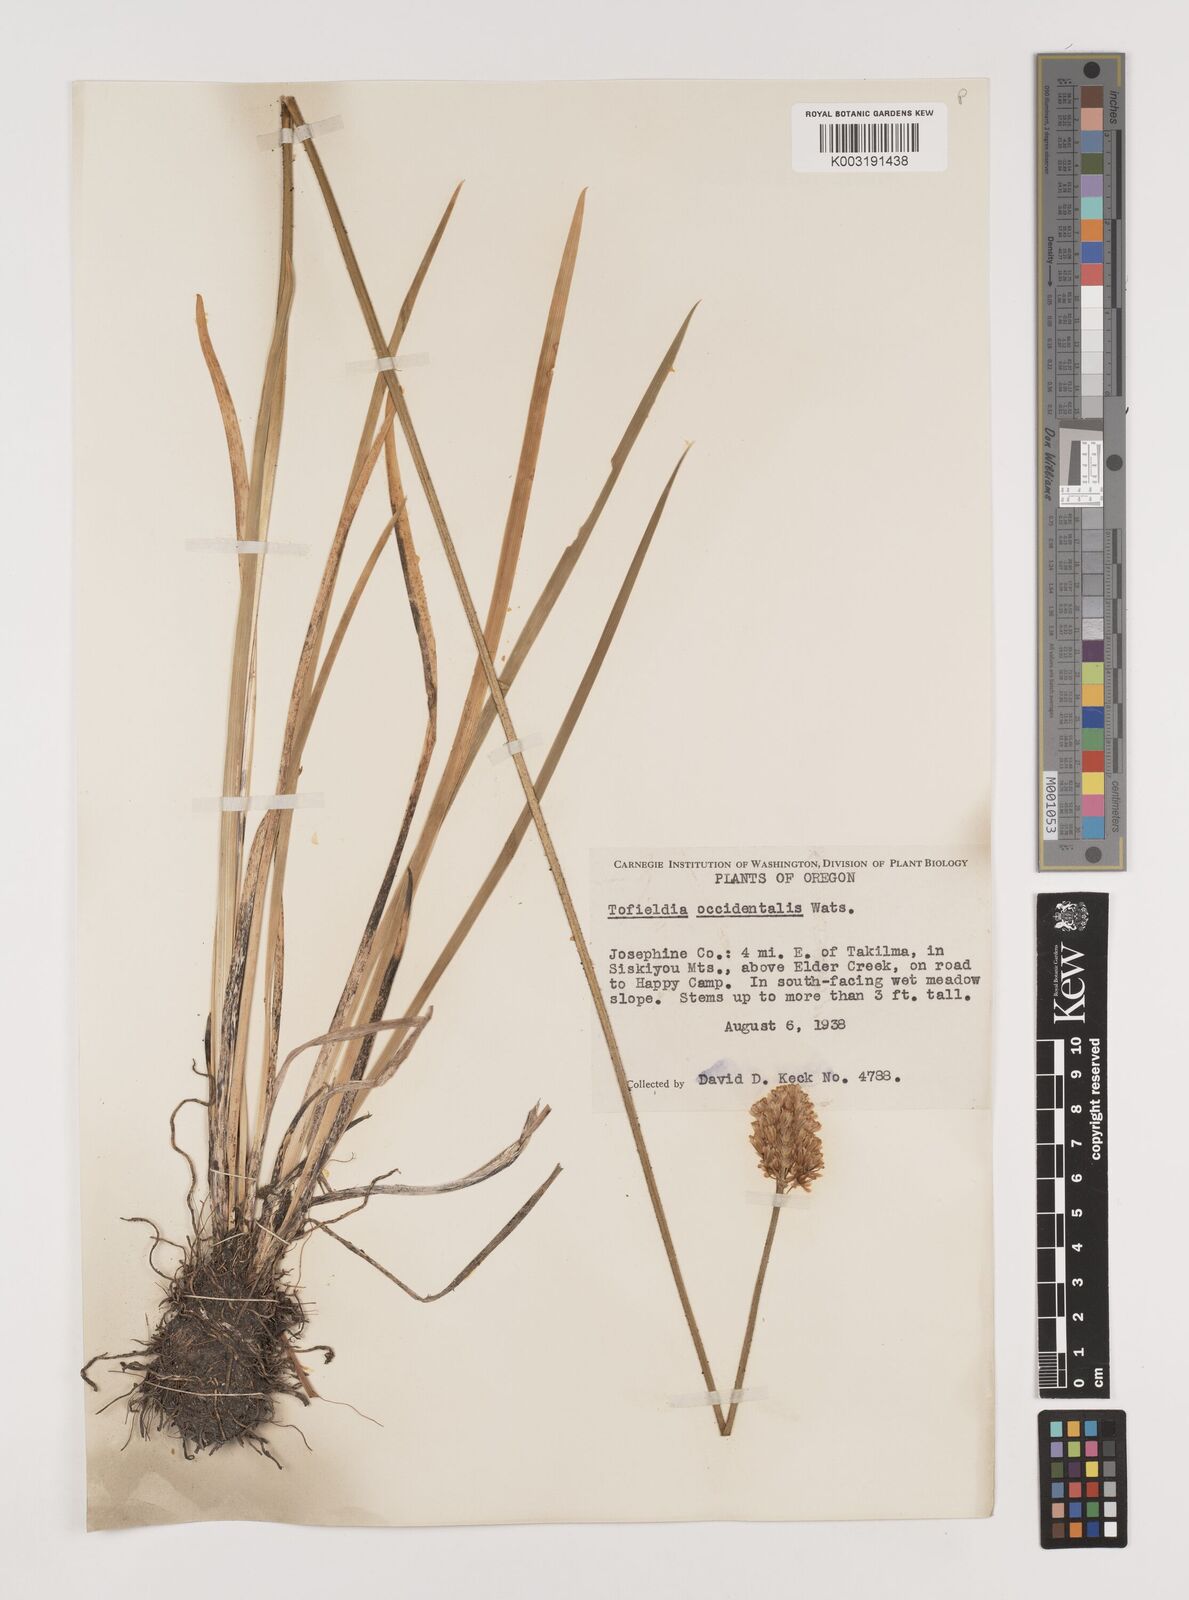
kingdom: Plantae
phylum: Tracheophyta
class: Liliopsida
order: Alismatales
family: Tofieldiaceae
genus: Triantha
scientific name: Triantha occidentalis
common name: Western false asphodel
